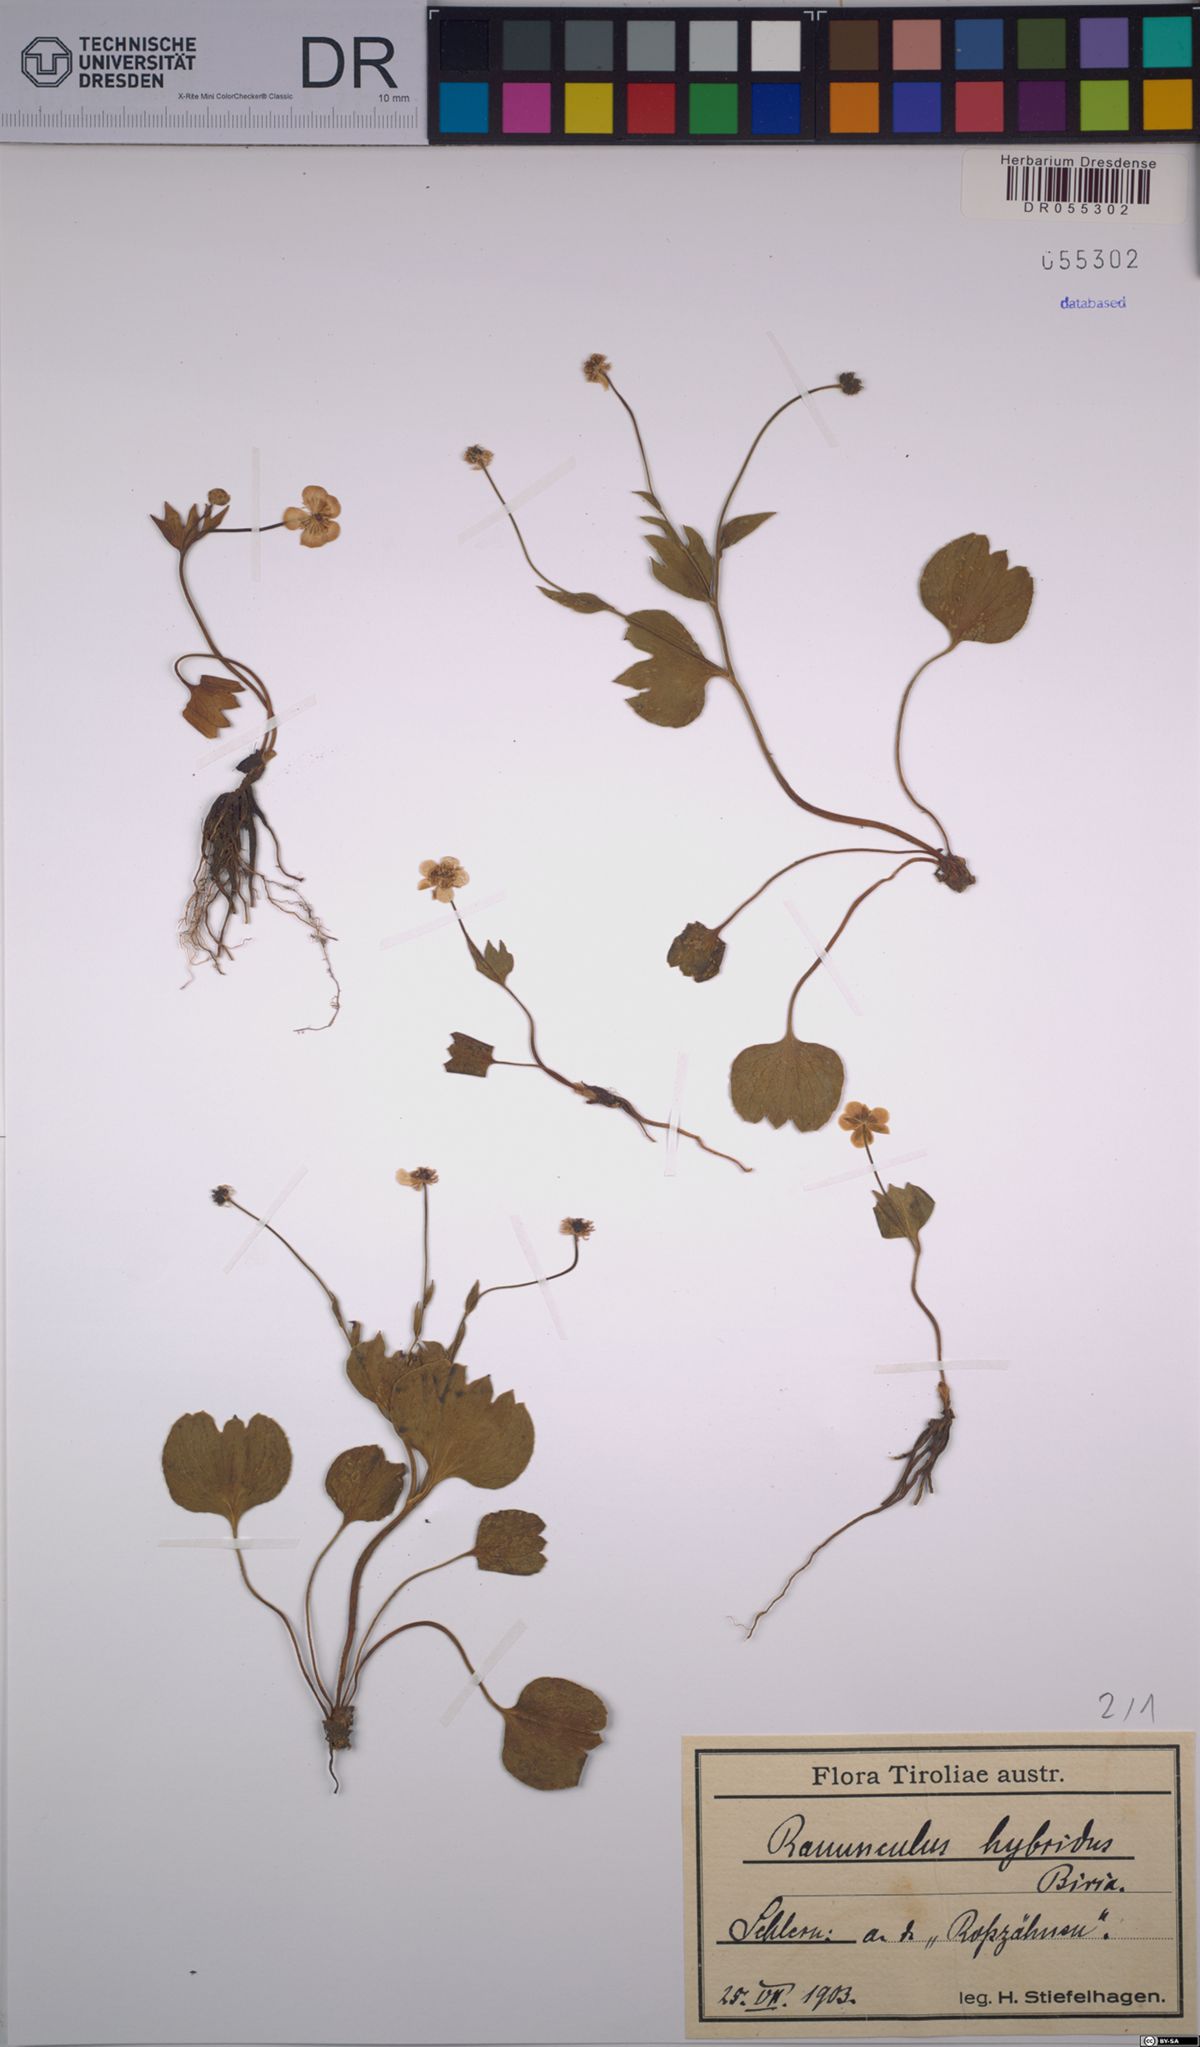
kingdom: Plantae
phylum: Tracheophyta
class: Magnoliopsida
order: Ranunculales
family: Ranunculaceae
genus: Ranunculus
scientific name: Ranunculus hybridus
